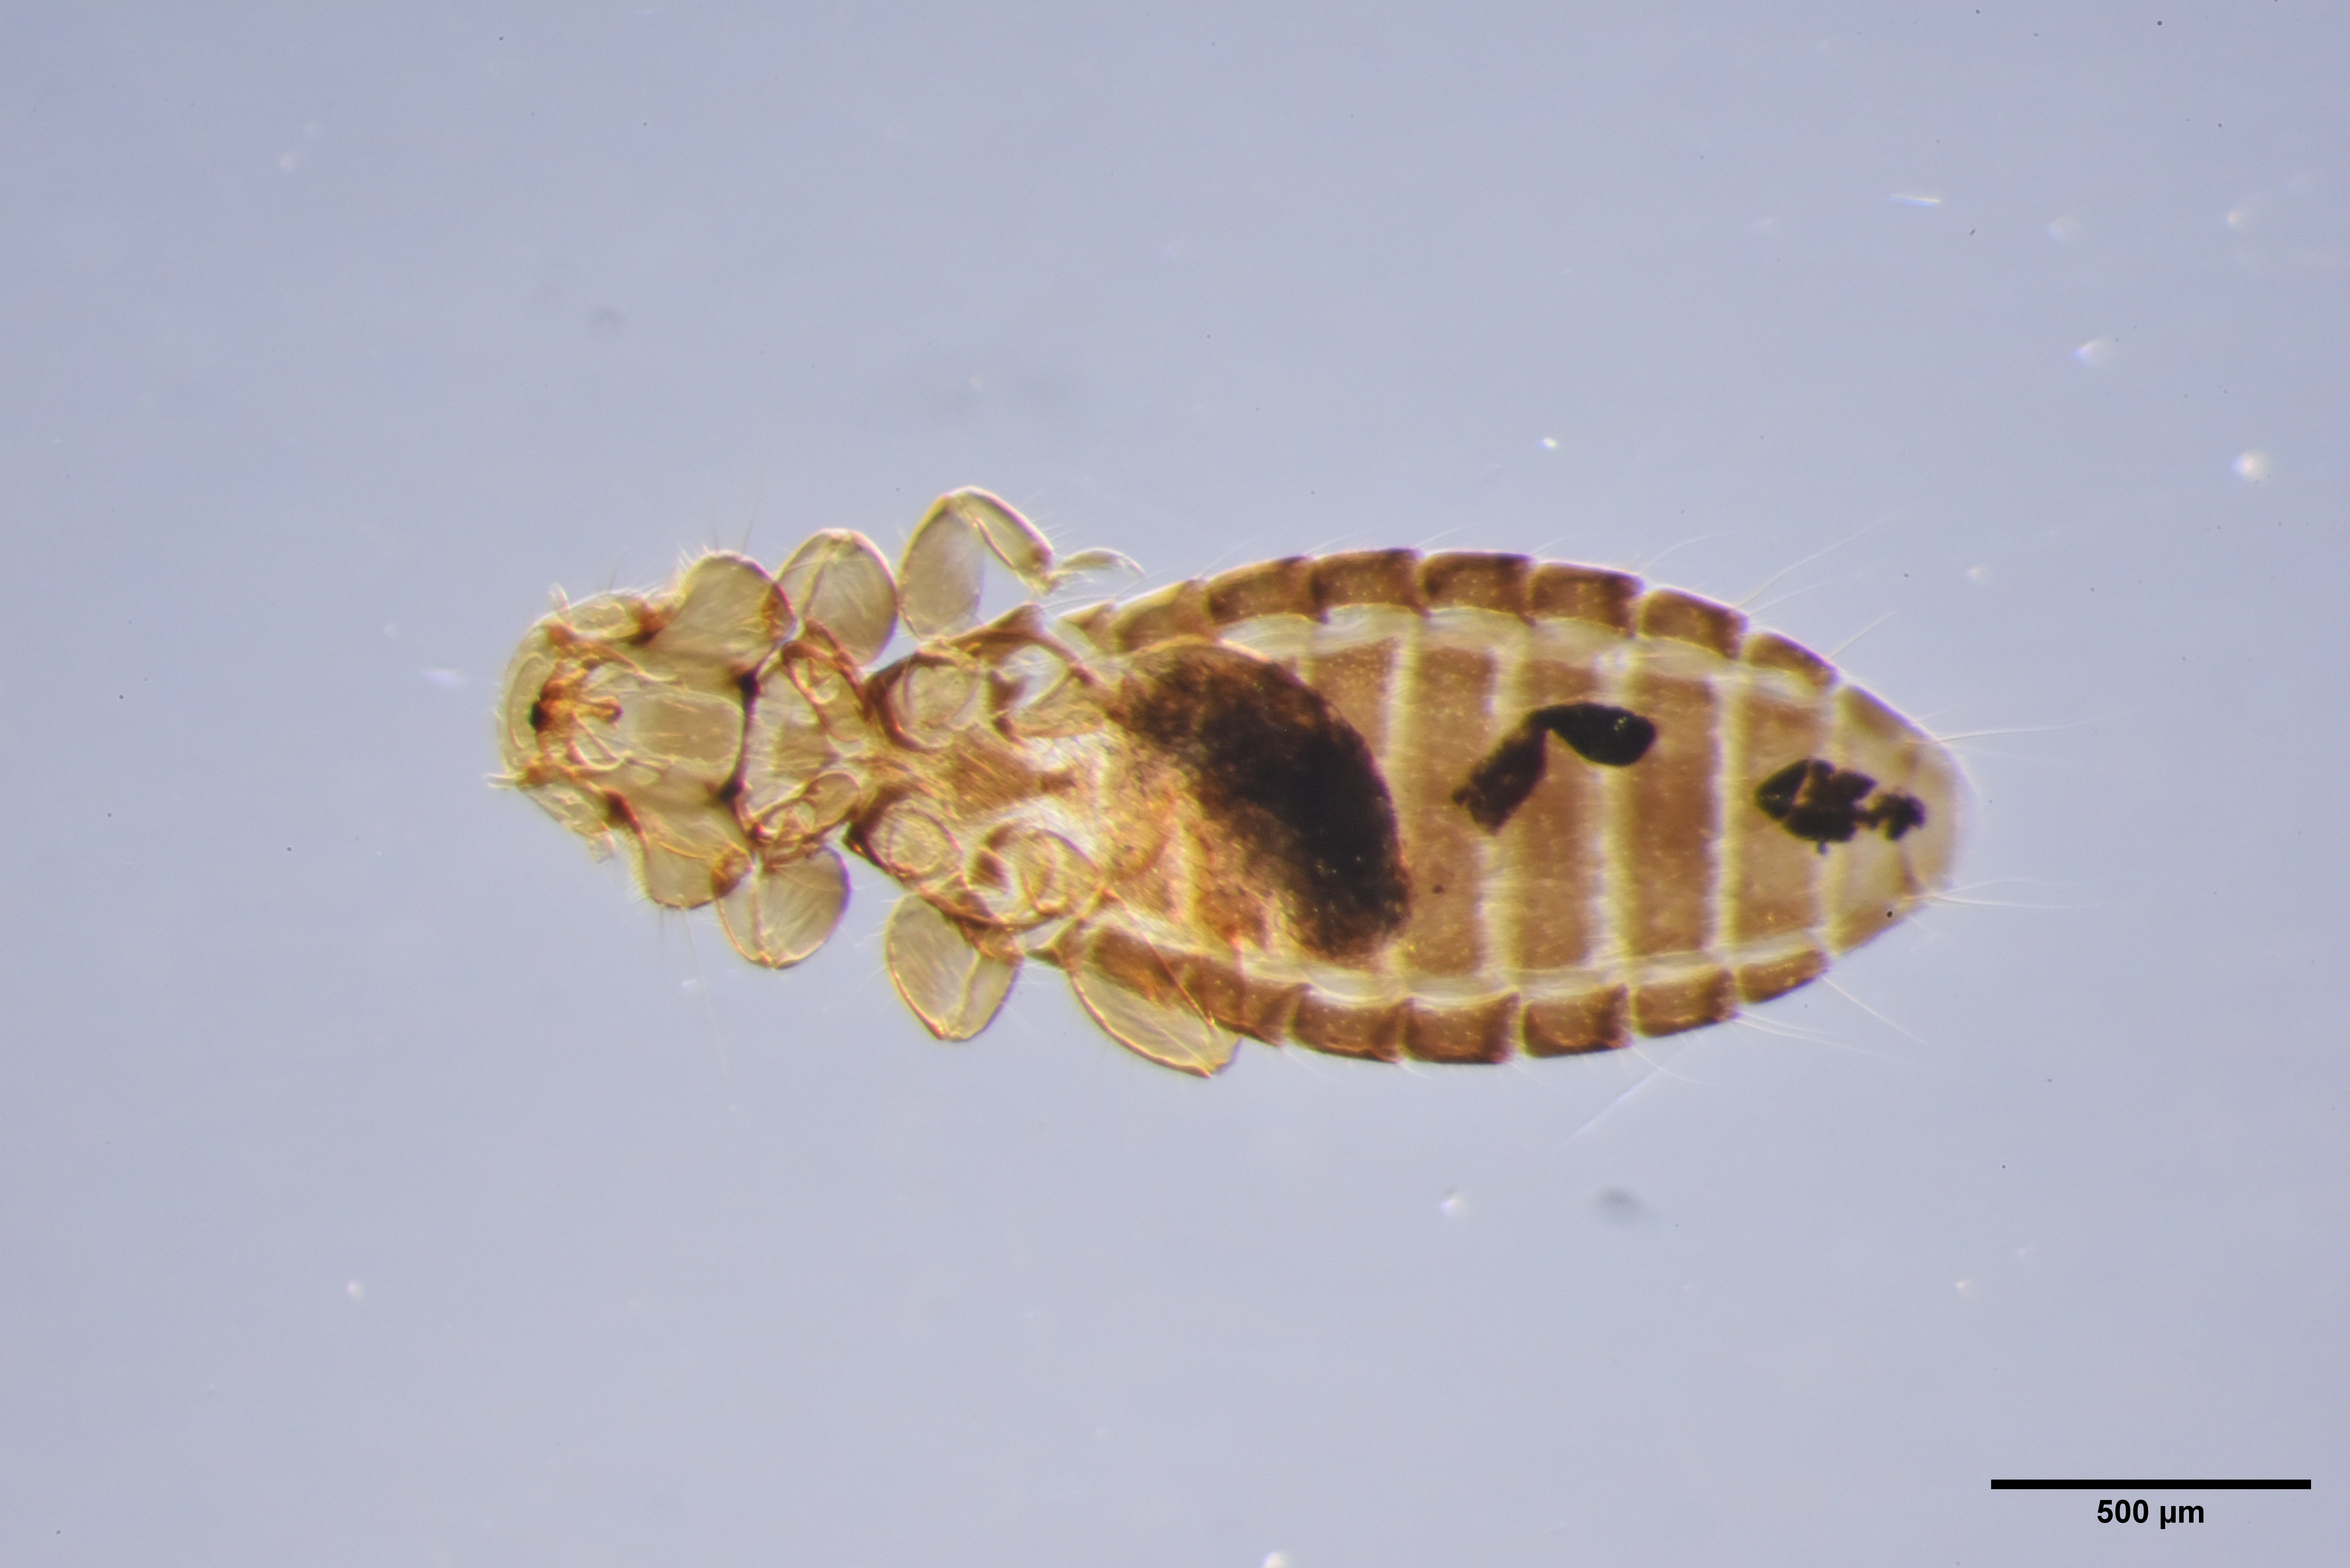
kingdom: Animalia
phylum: Arthropoda
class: Insecta
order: Psocodea
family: Ancistronidae
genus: Actornithophilus
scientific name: Actornithophilus paludosus
